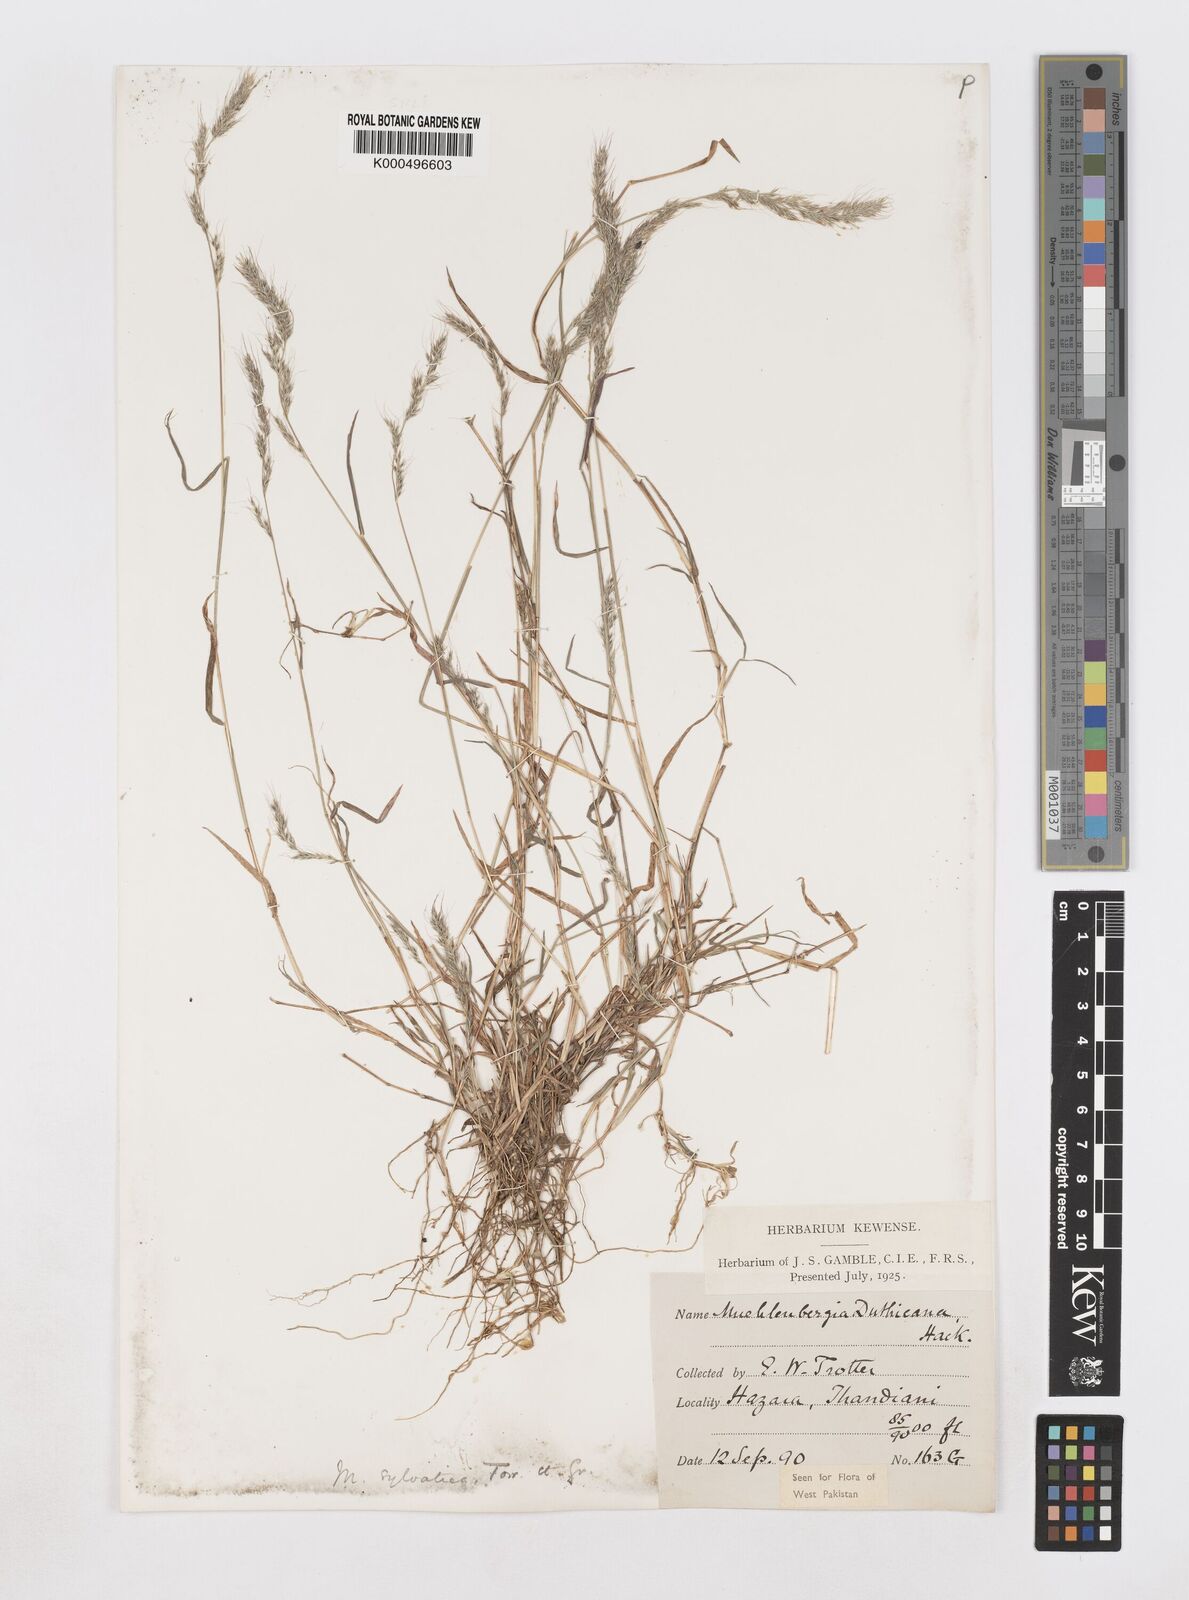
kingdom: Plantae
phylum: Tracheophyta
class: Liliopsida
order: Poales
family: Poaceae
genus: Muhlenbergia
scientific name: Muhlenbergia duthieana
